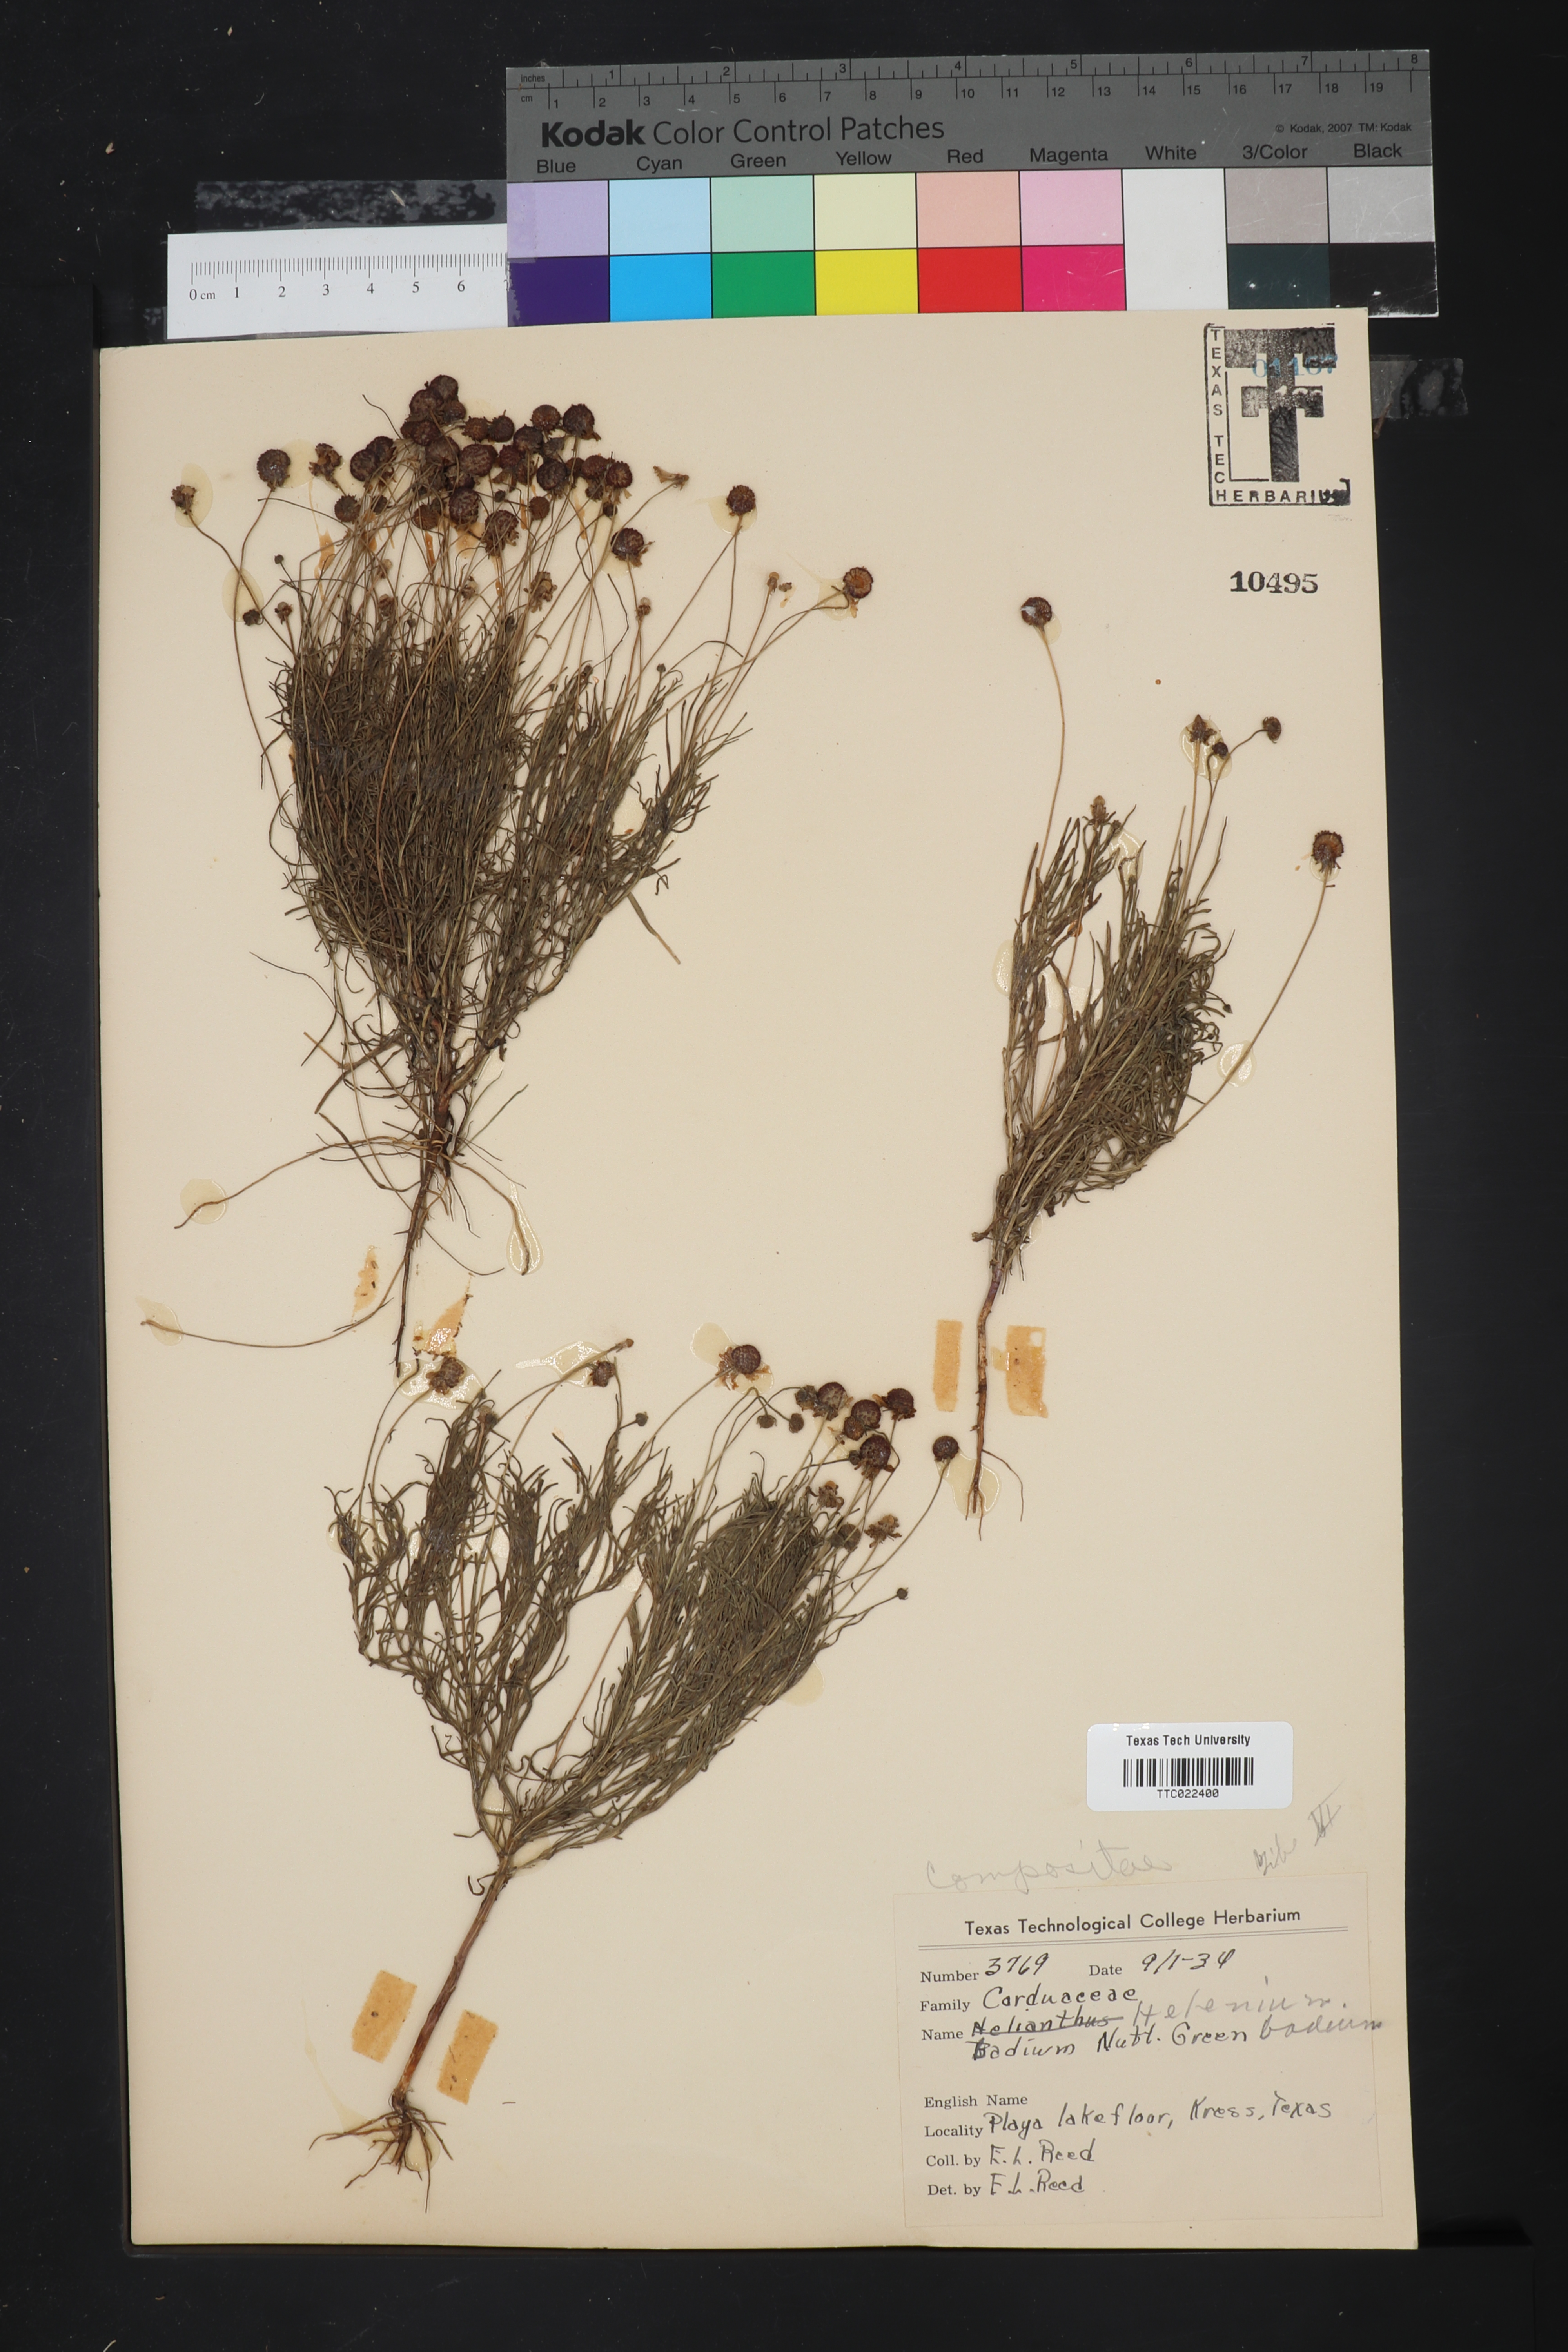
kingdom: Plantae
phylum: Tracheophyta
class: Magnoliopsida
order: Asterales
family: Asteraceae
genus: Helenium
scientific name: Helenium amarum
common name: Bitter sneezeweed
